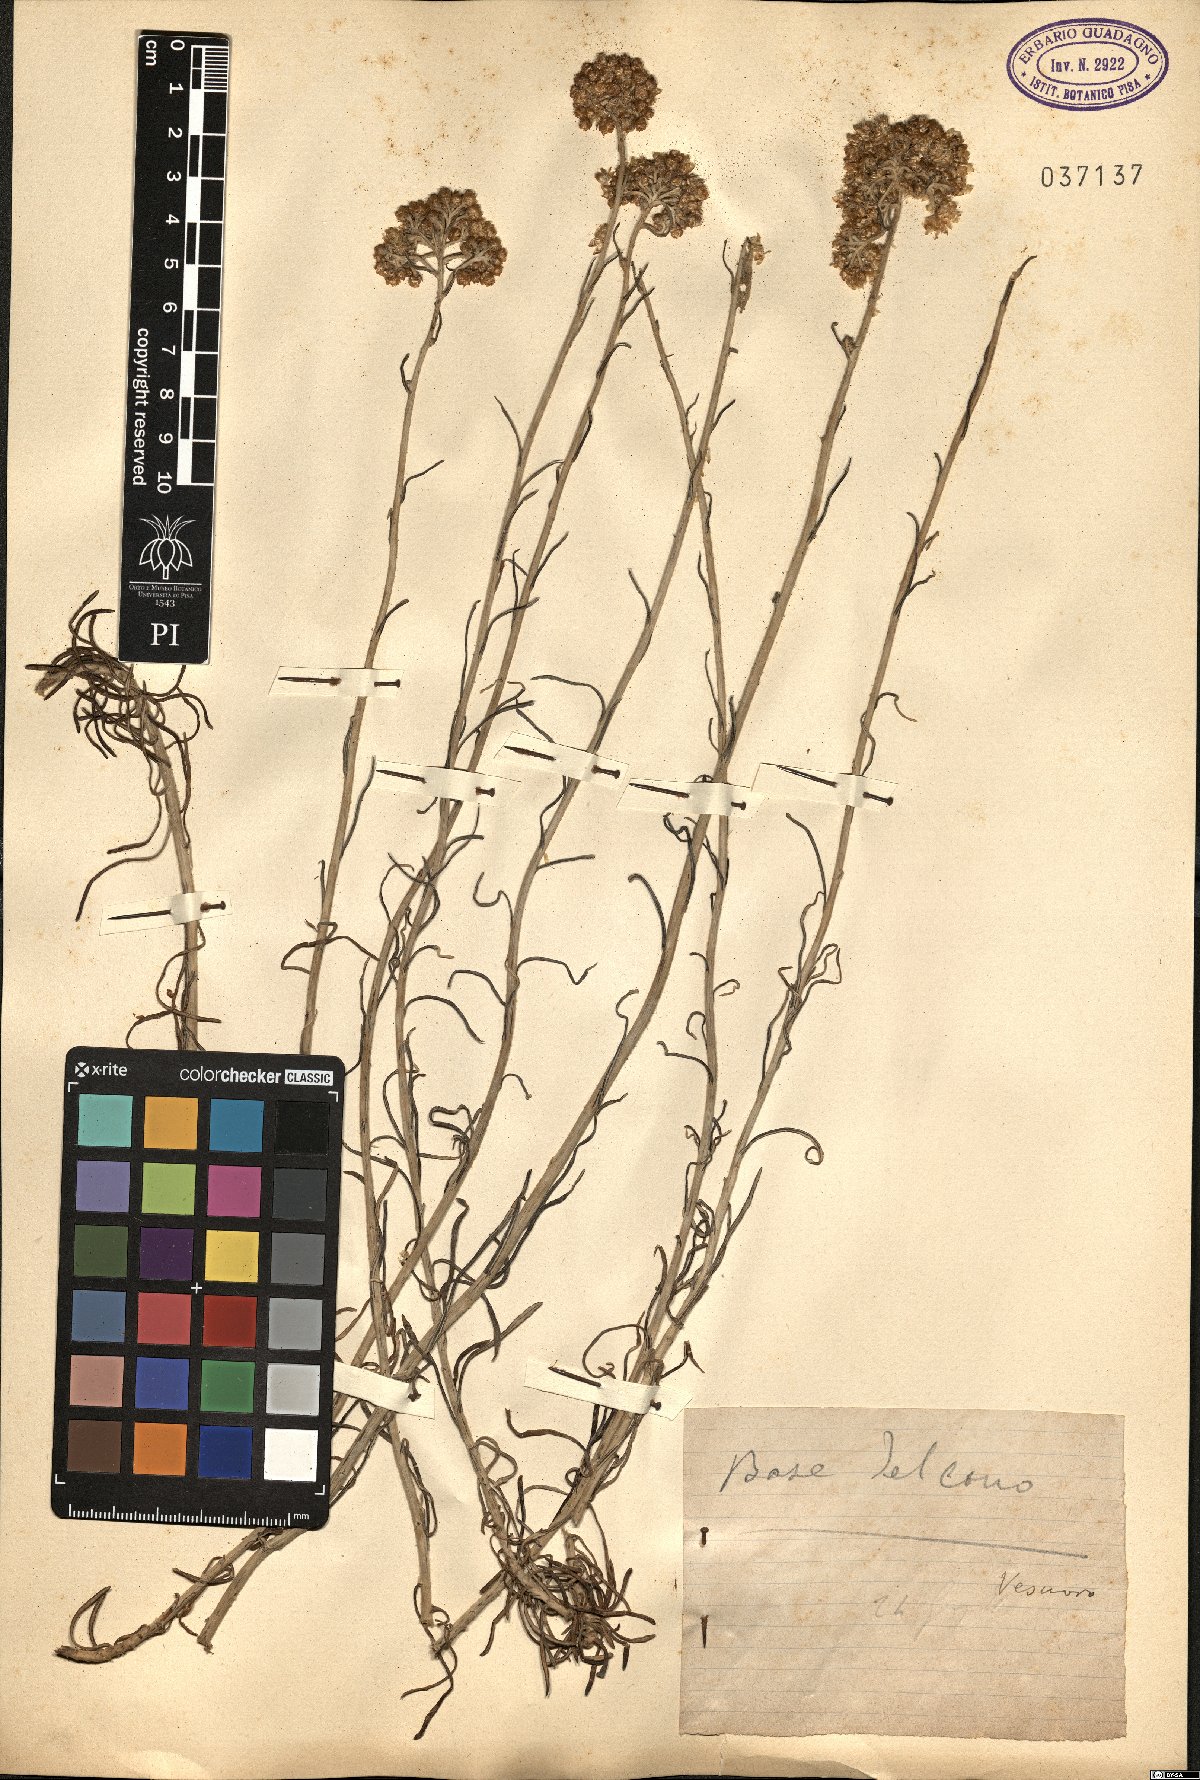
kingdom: Plantae
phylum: Tracheophyta
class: Magnoliopsida
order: Asterales
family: Asteraceae
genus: Helichrysum
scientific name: Helichrysum
